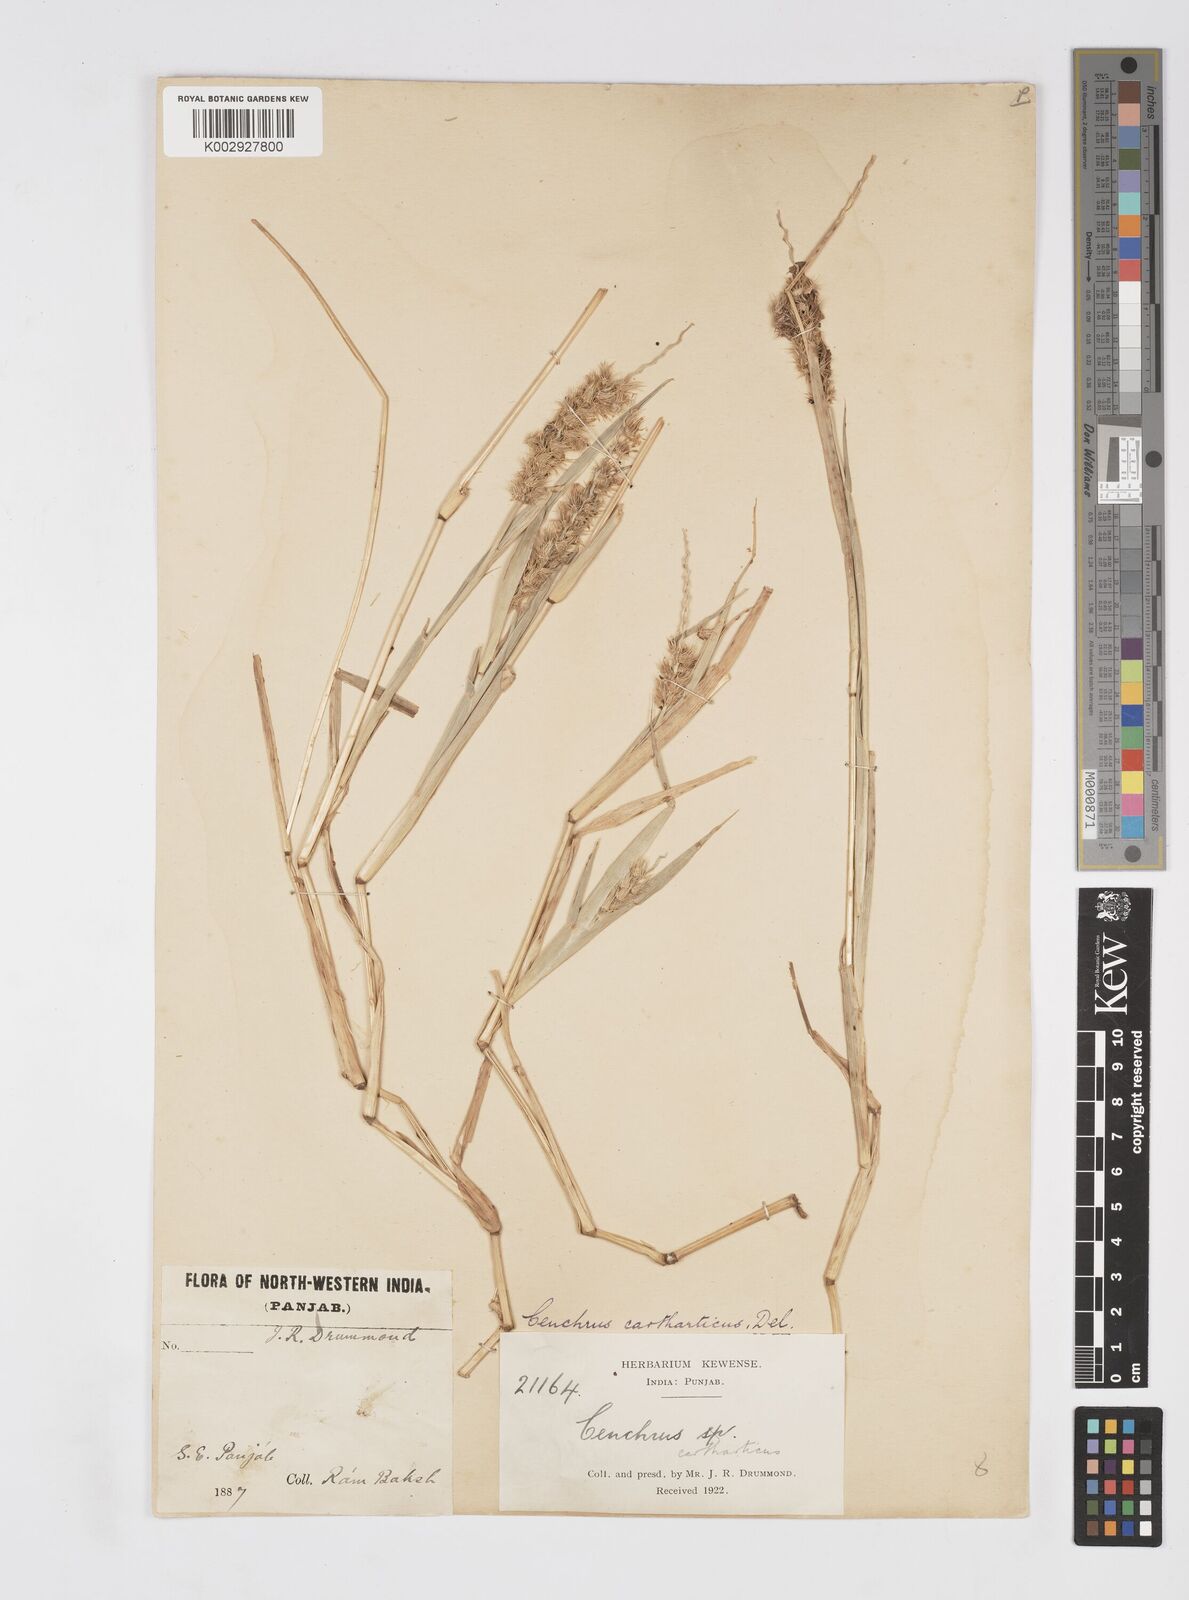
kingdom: Plantae
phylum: Tracheophyta
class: Liliopsida
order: Poales
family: Poaceae
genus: Cenchrus
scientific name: Cenchrus biflorus
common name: Indian sandbur
